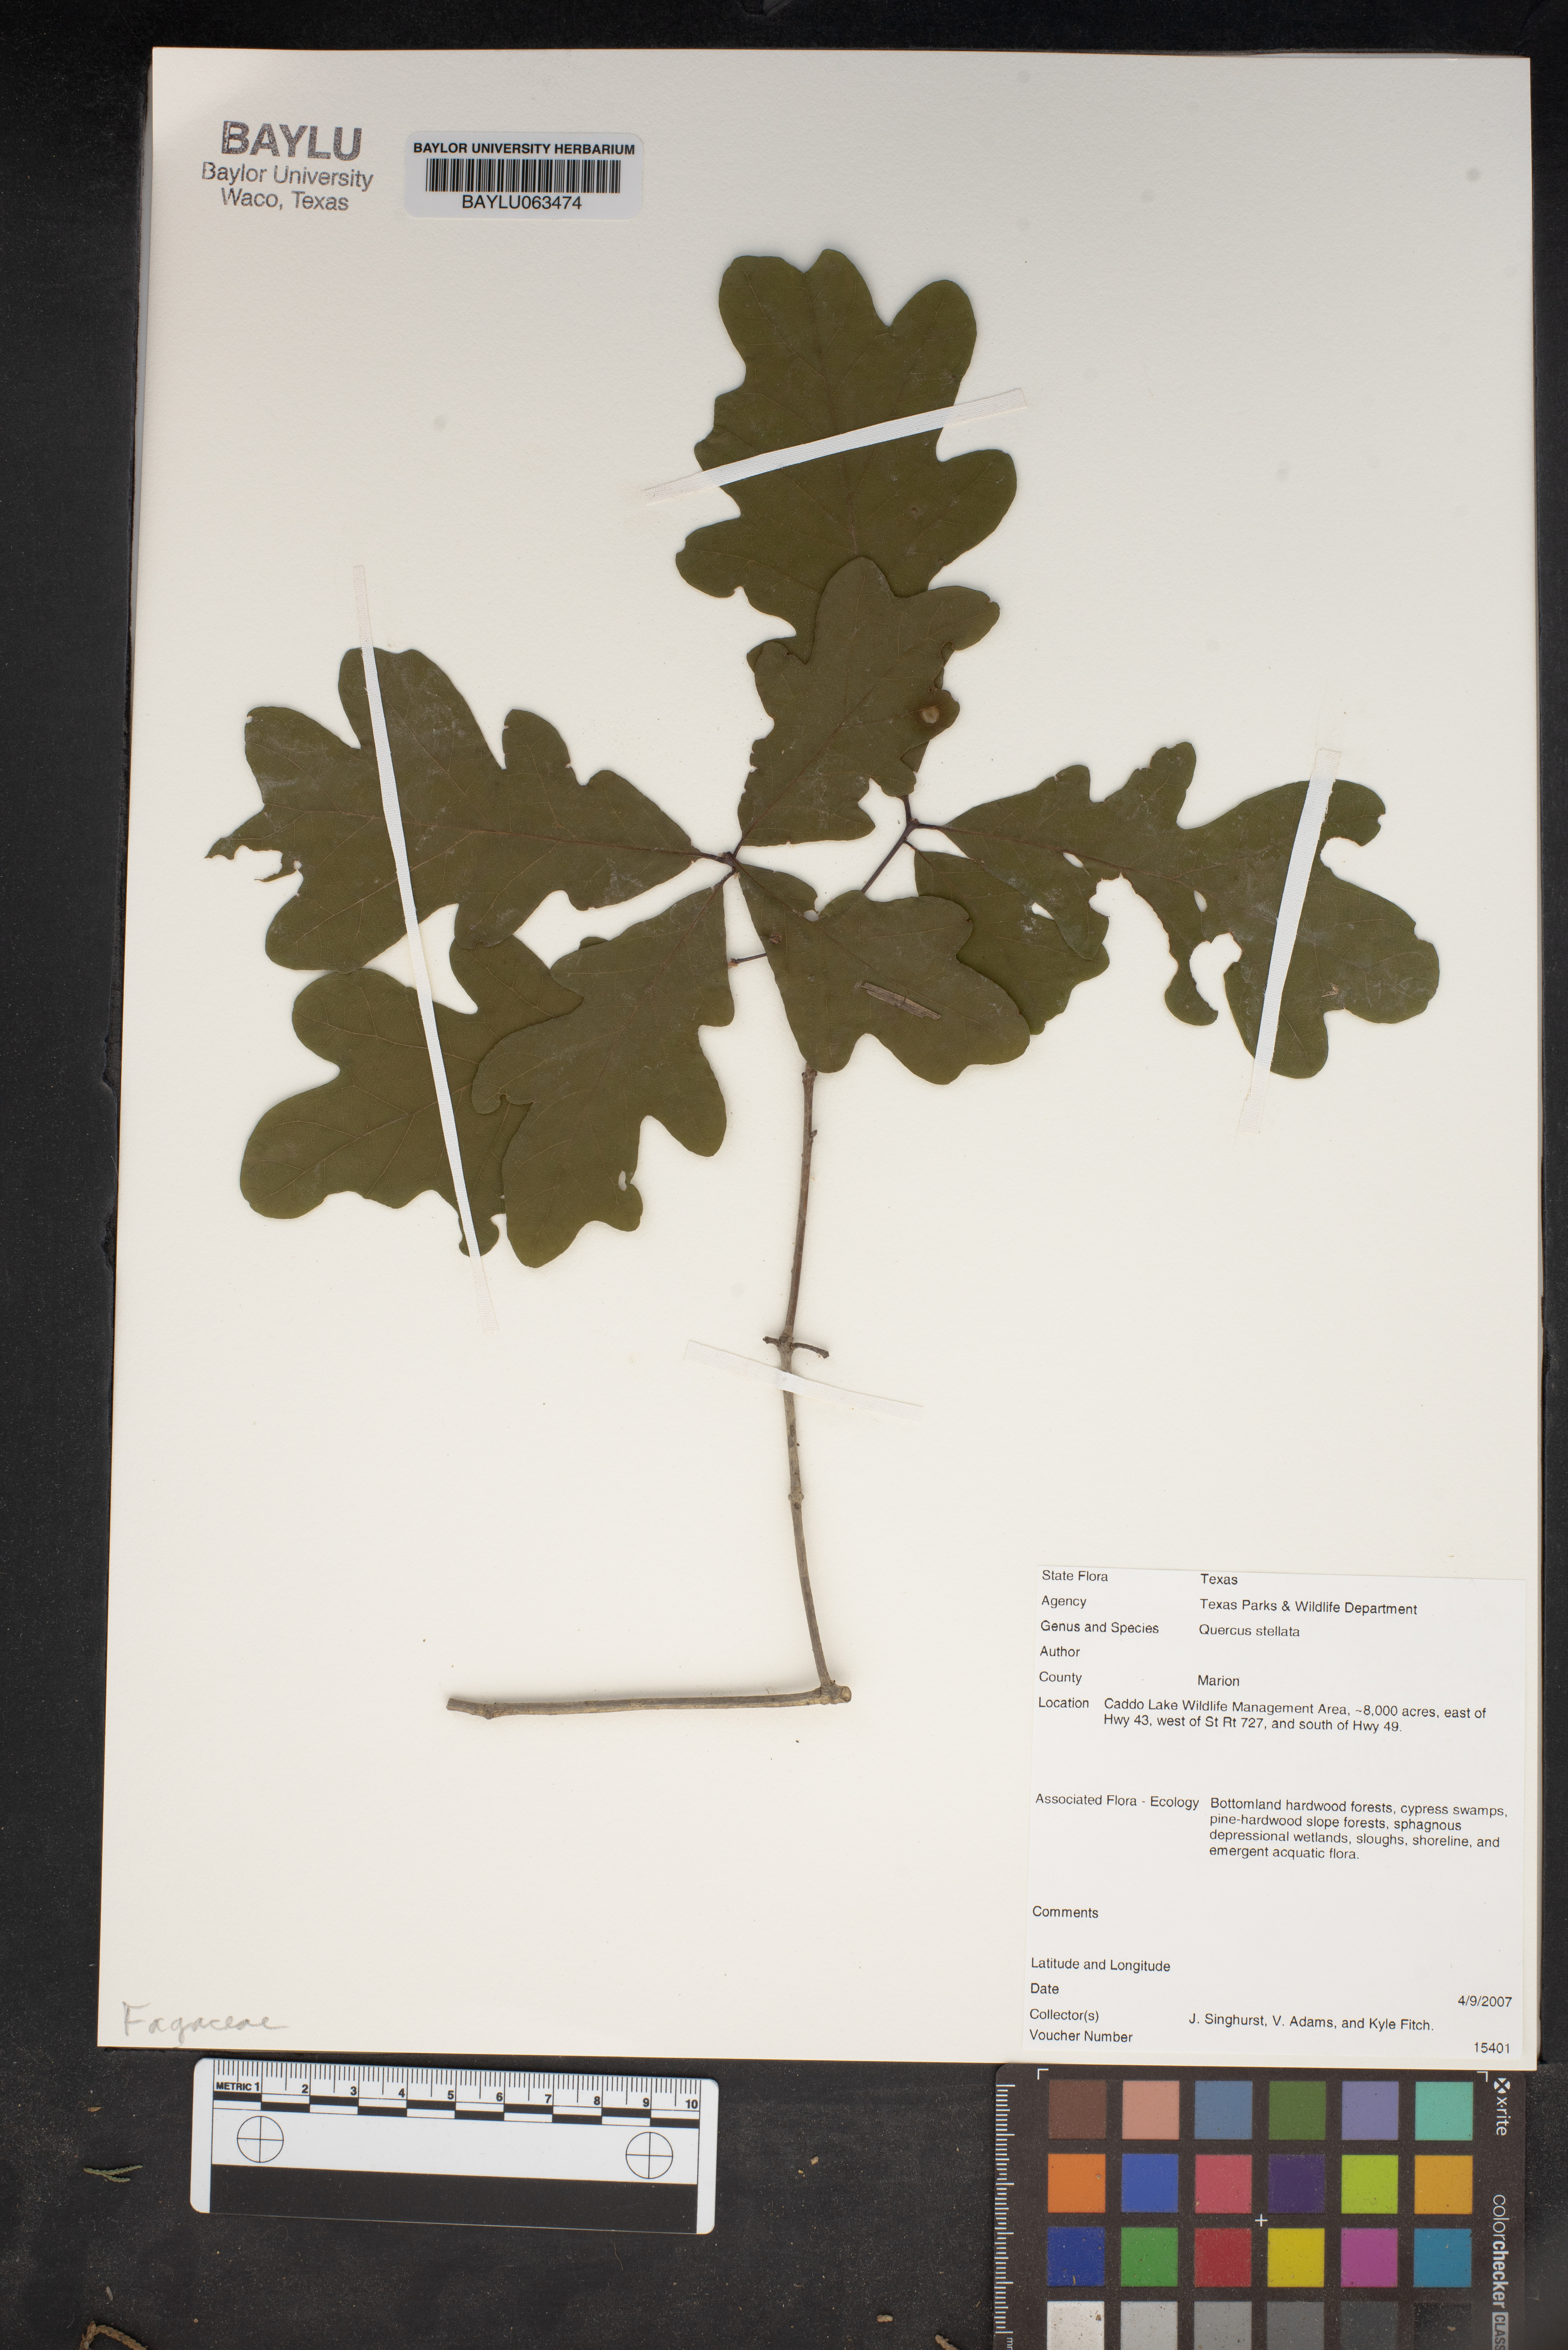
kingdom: Plantae
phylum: Tracheophyta
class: Magnoliopsida
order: Fagales
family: Fagaceae
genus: Quercus
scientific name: Quercus stellata
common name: Post oak
